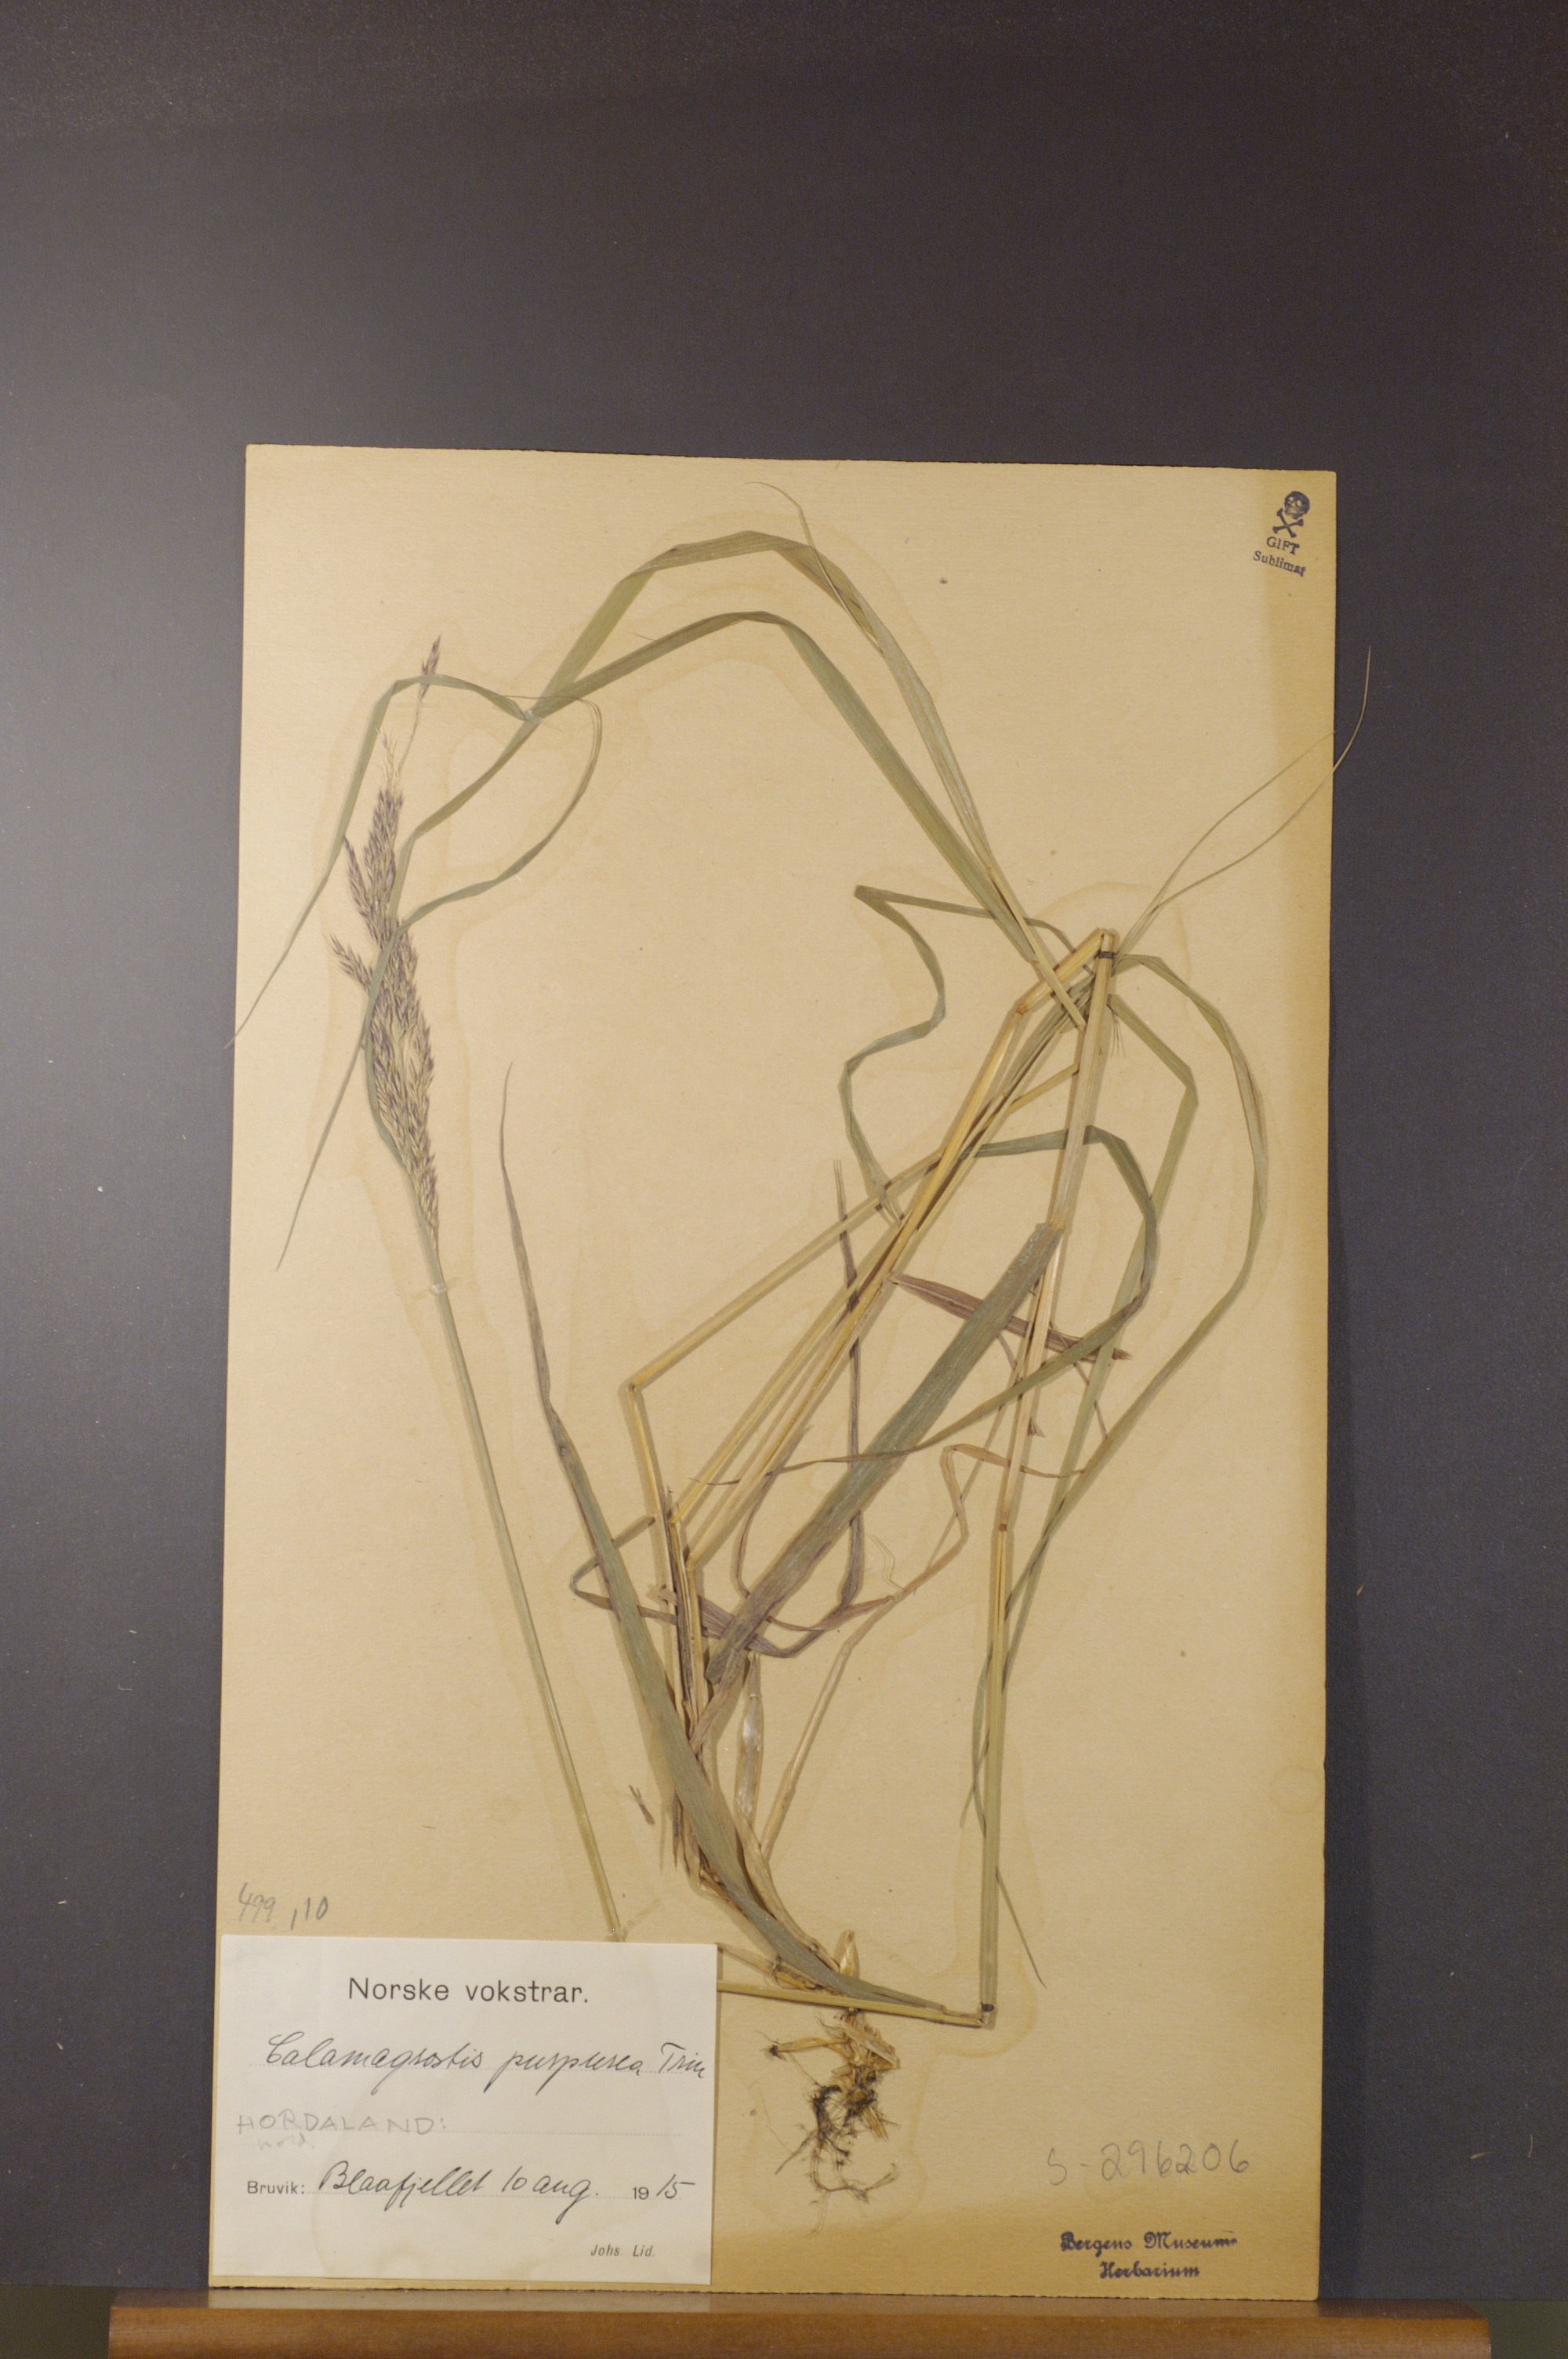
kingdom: Plantae
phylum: Tracheophyta
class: Liliopsida
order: Poales
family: Poaceae
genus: Calamagrostis
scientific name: Calamagrostis purpurea
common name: Scandinavian small-reed
